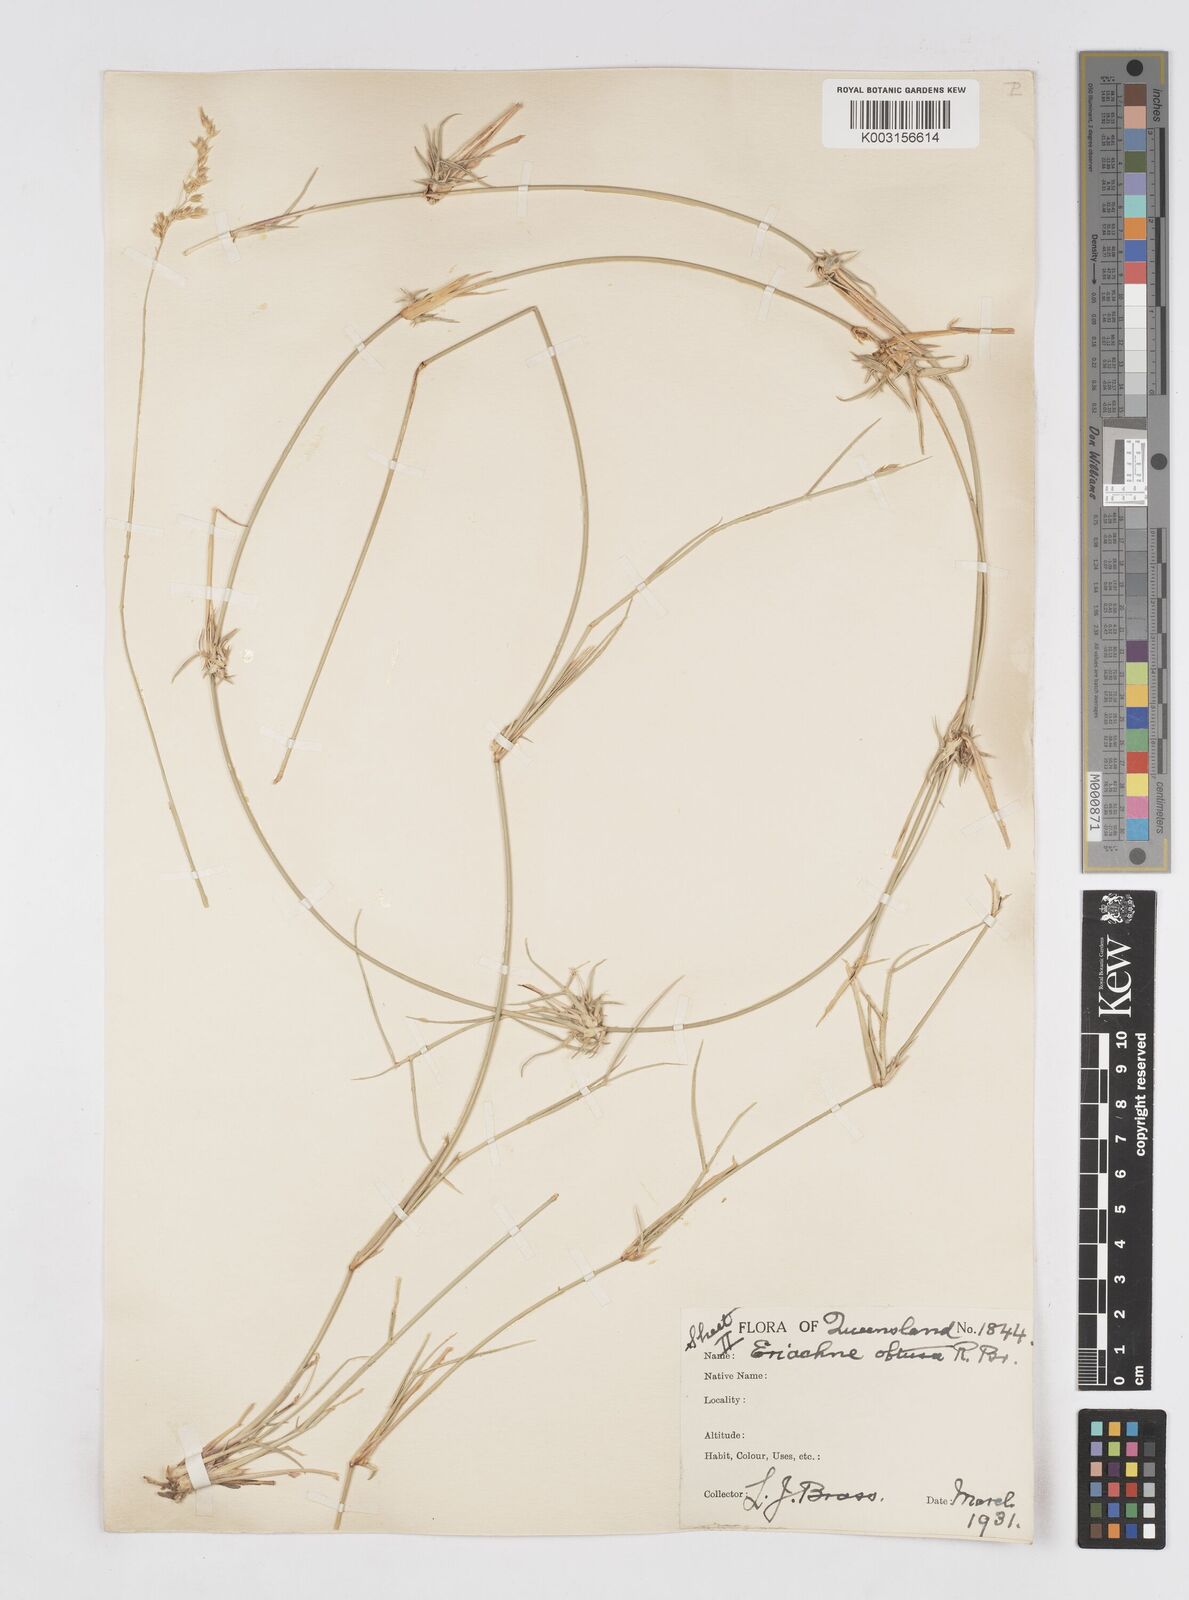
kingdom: Plantae
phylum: Tracheophyta
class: Liliopsida
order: Poales
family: Poaceae
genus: Eriachne
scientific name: Eriachne obtusa
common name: Northern wanderrie grass
